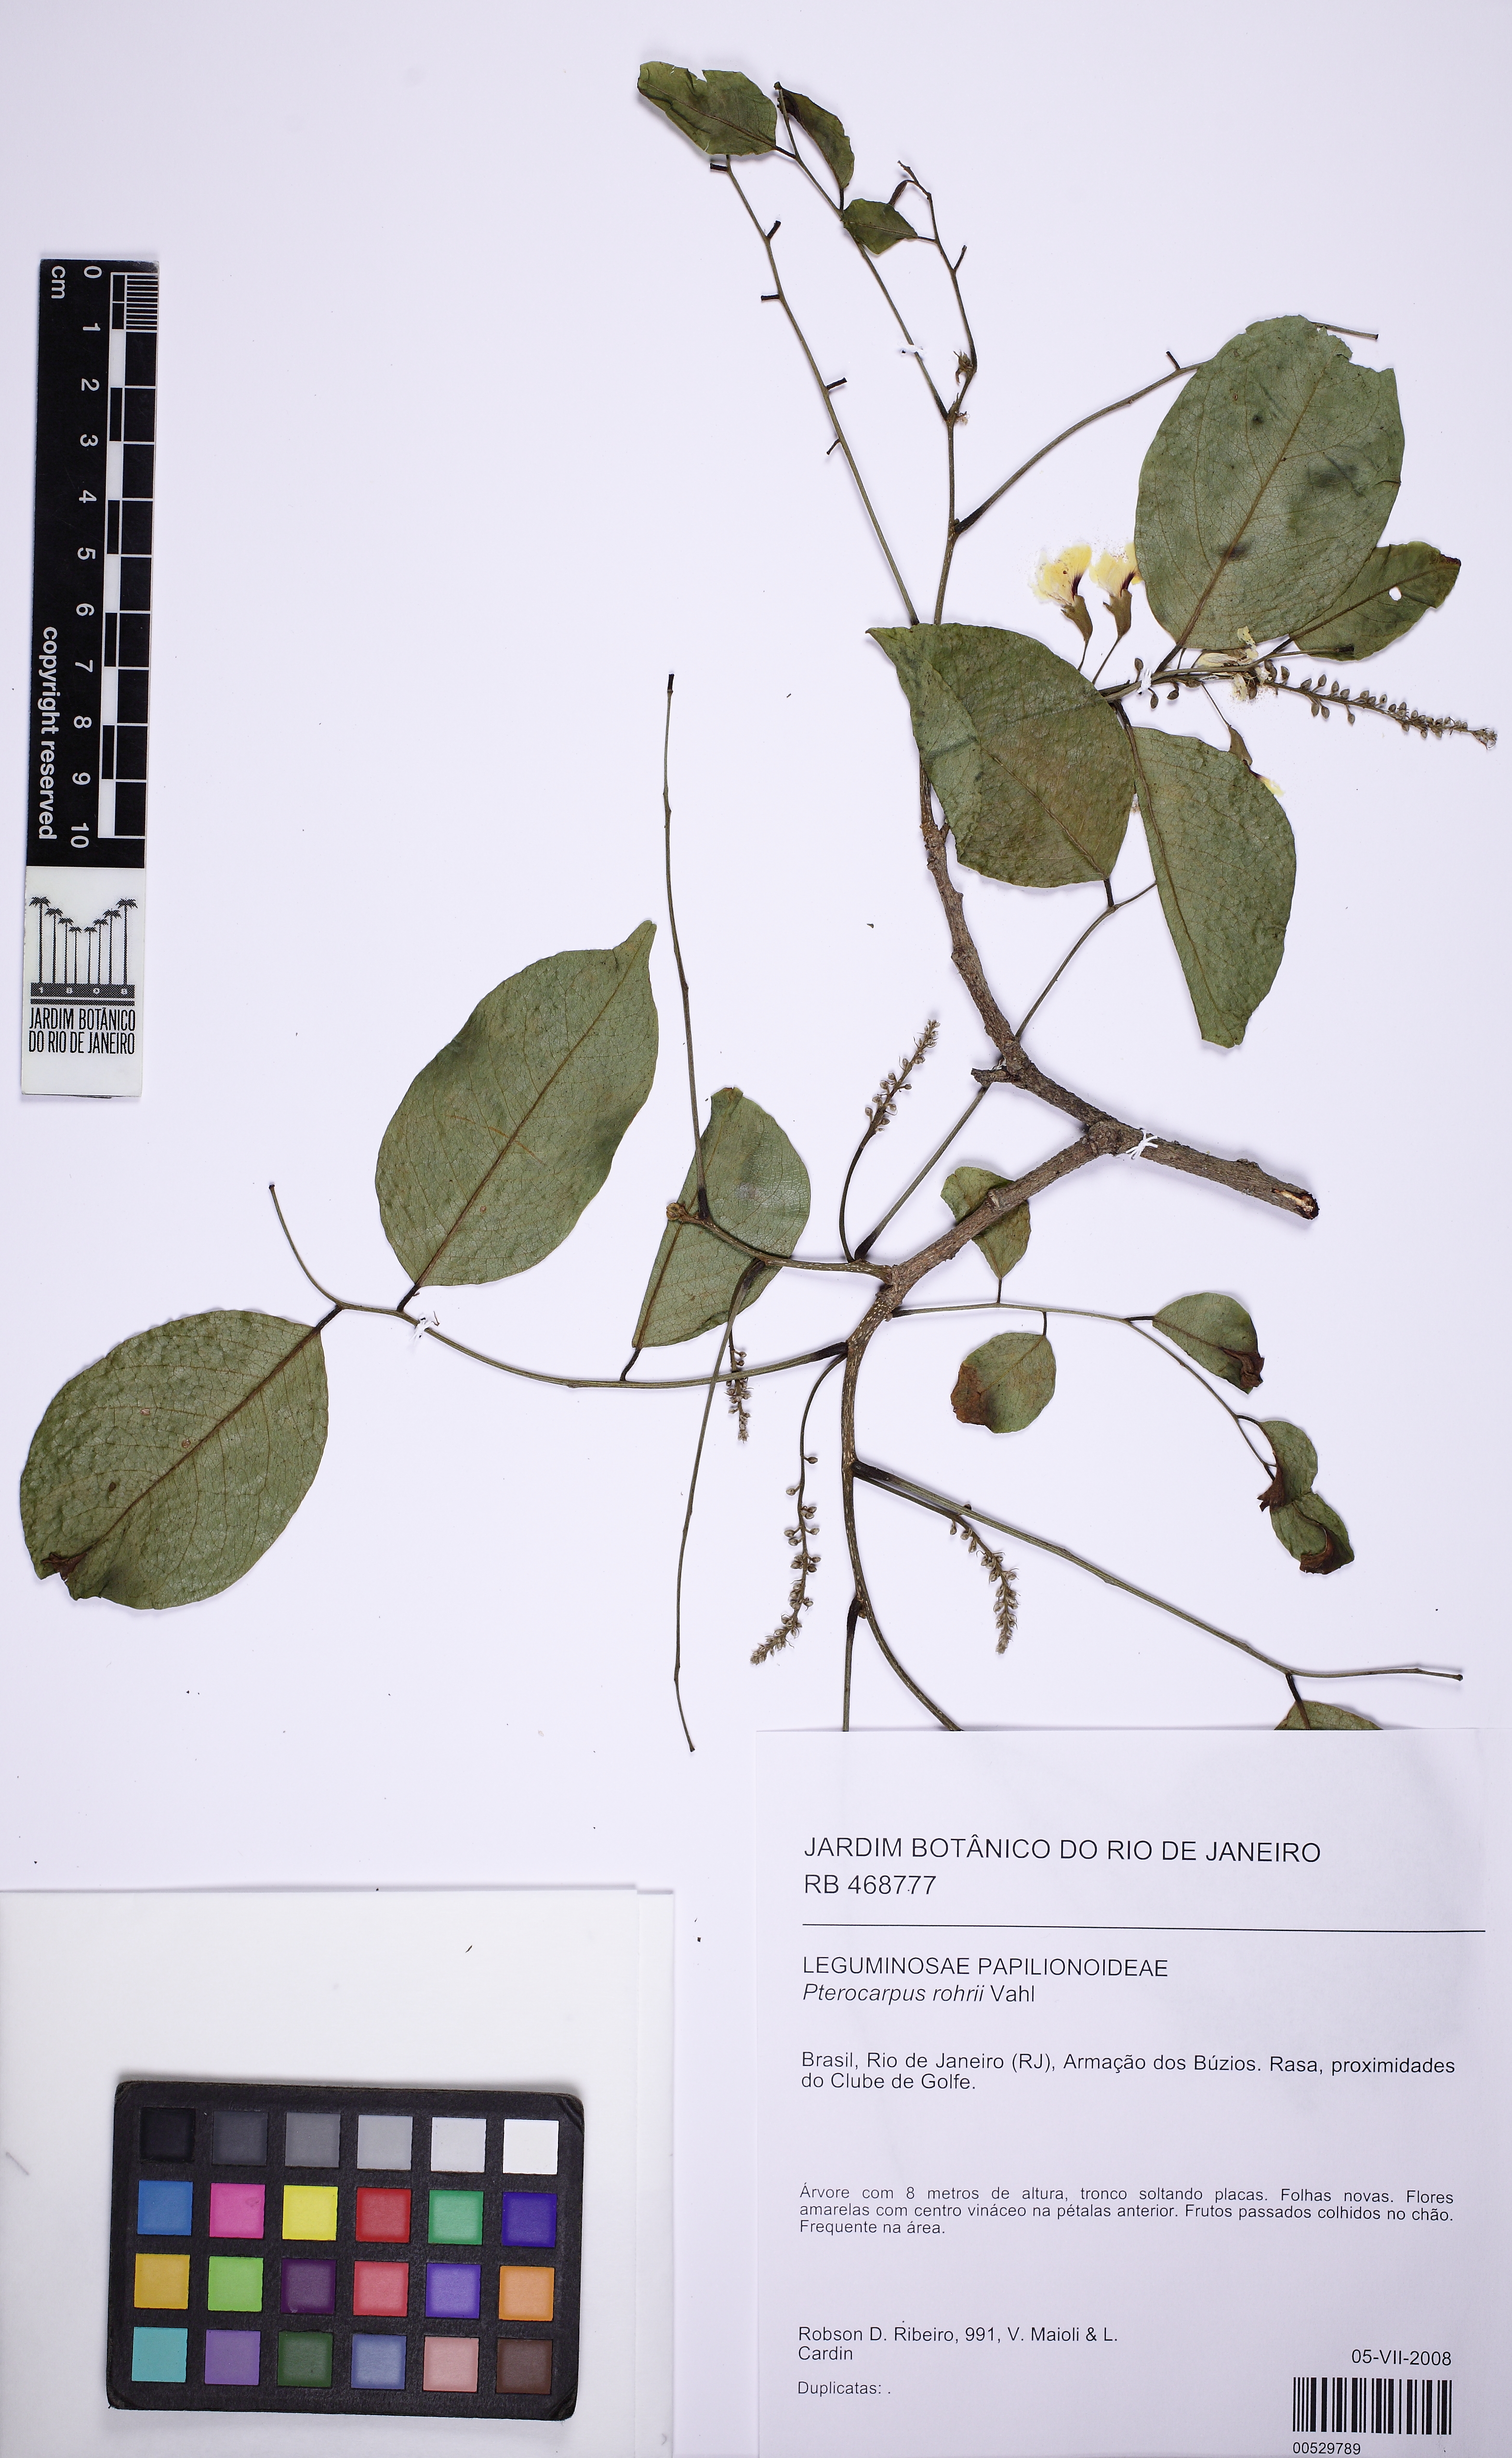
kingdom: Plantae
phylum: Tracheophyta
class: Magnoliopsida
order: Fabales
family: Fabaceae
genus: Pterocarpus
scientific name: Pterocarpus rohrii
